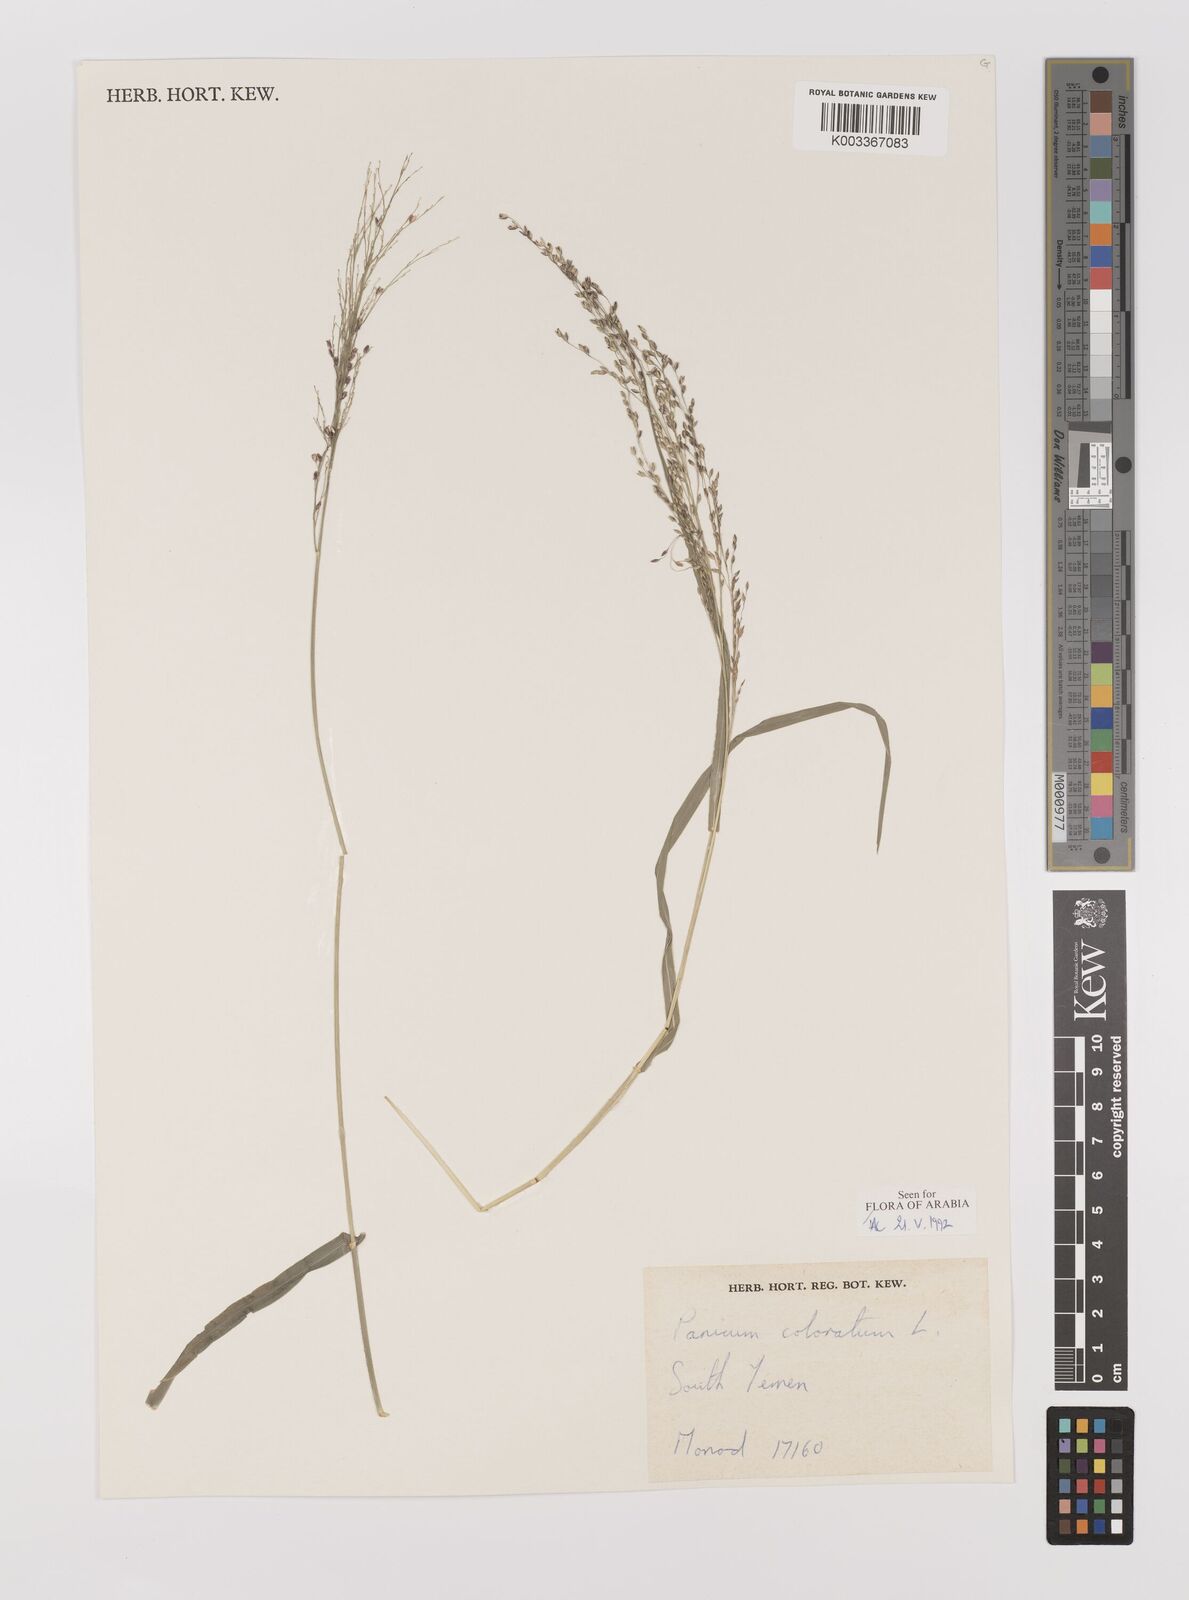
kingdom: Plantae
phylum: Tracheophyta
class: Liliopsida
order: Poales
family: Poaceae
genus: Panicum
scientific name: Panicum coloratum
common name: Kleingrass
